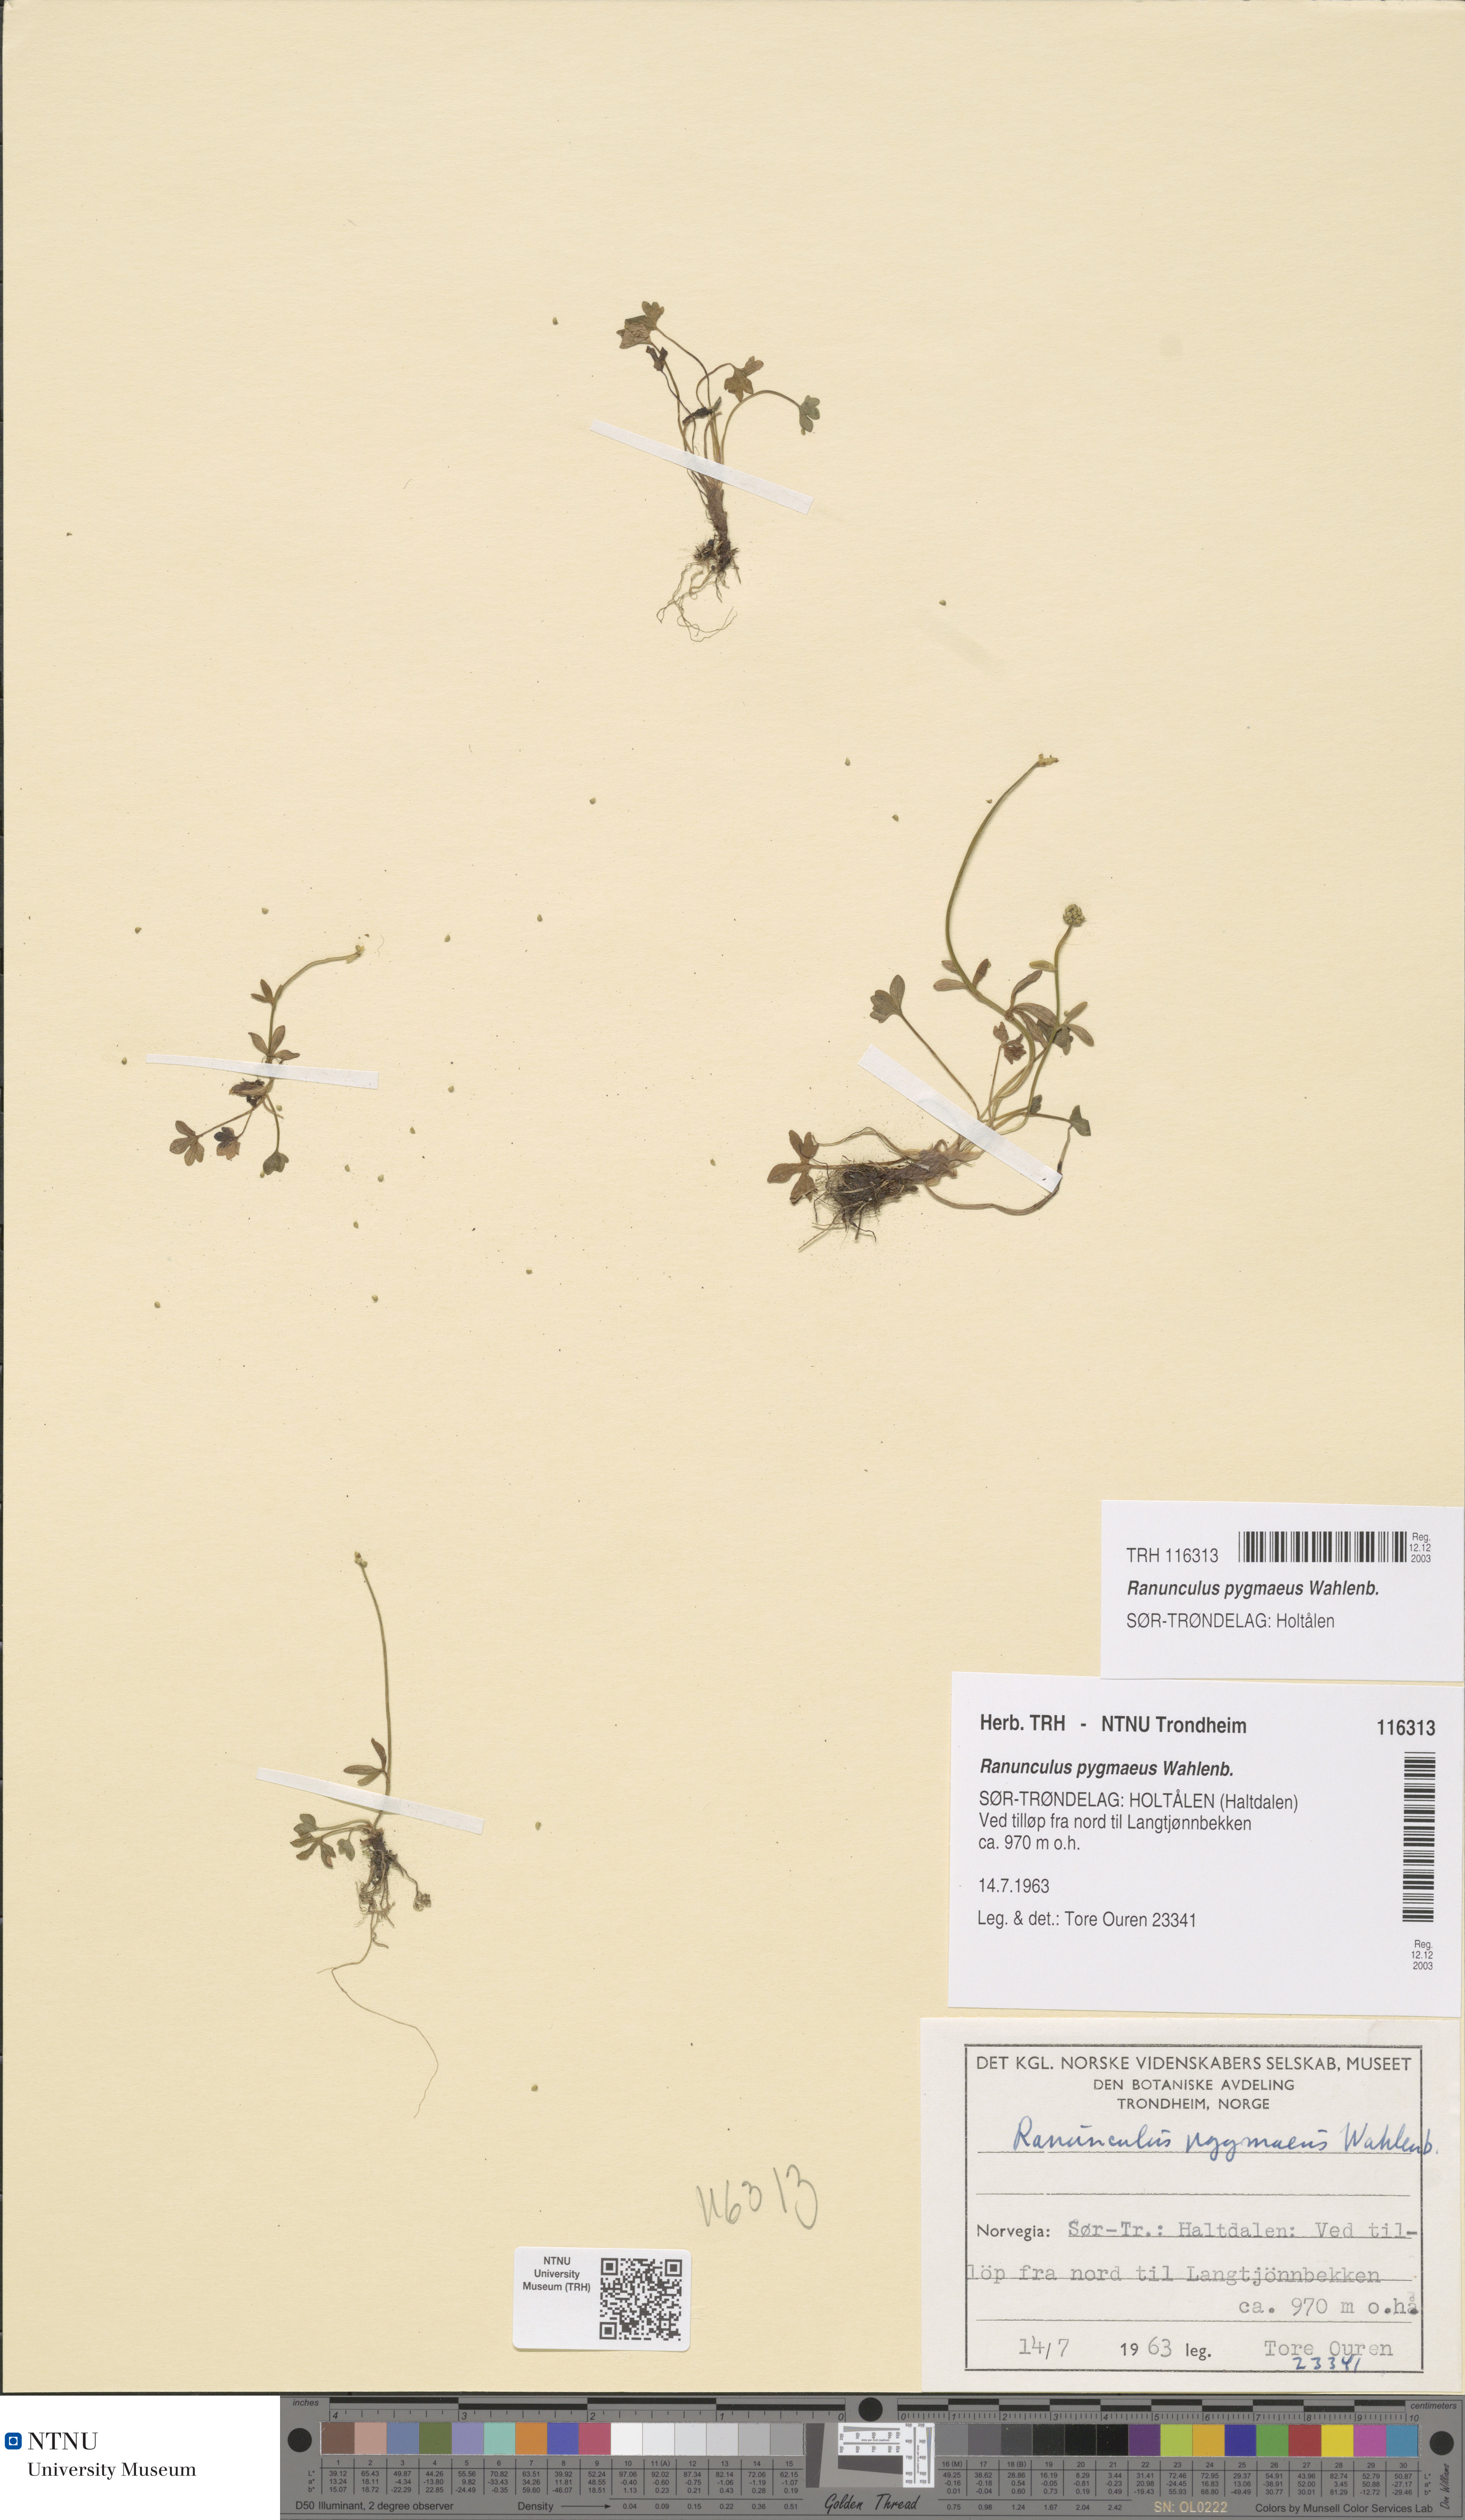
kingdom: Plantae
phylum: Tracheophyta
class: Magnoliopsida
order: Ranunculales
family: Ranunculaceae
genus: Ranunculus
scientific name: Ranunculus pygmaeus
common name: Dwarf buttercup
